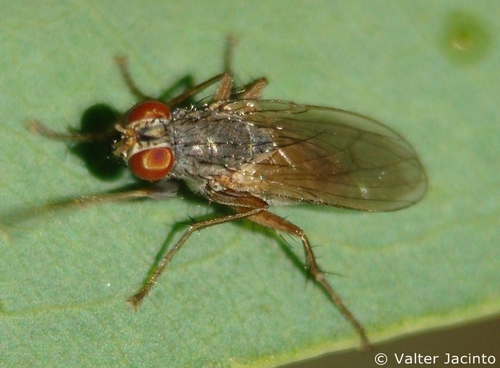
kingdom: Animalia
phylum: Arthropoda
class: Insecta
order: Diptera
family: Muscidae
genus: Lispocephala
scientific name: Lispocephala brachialis
